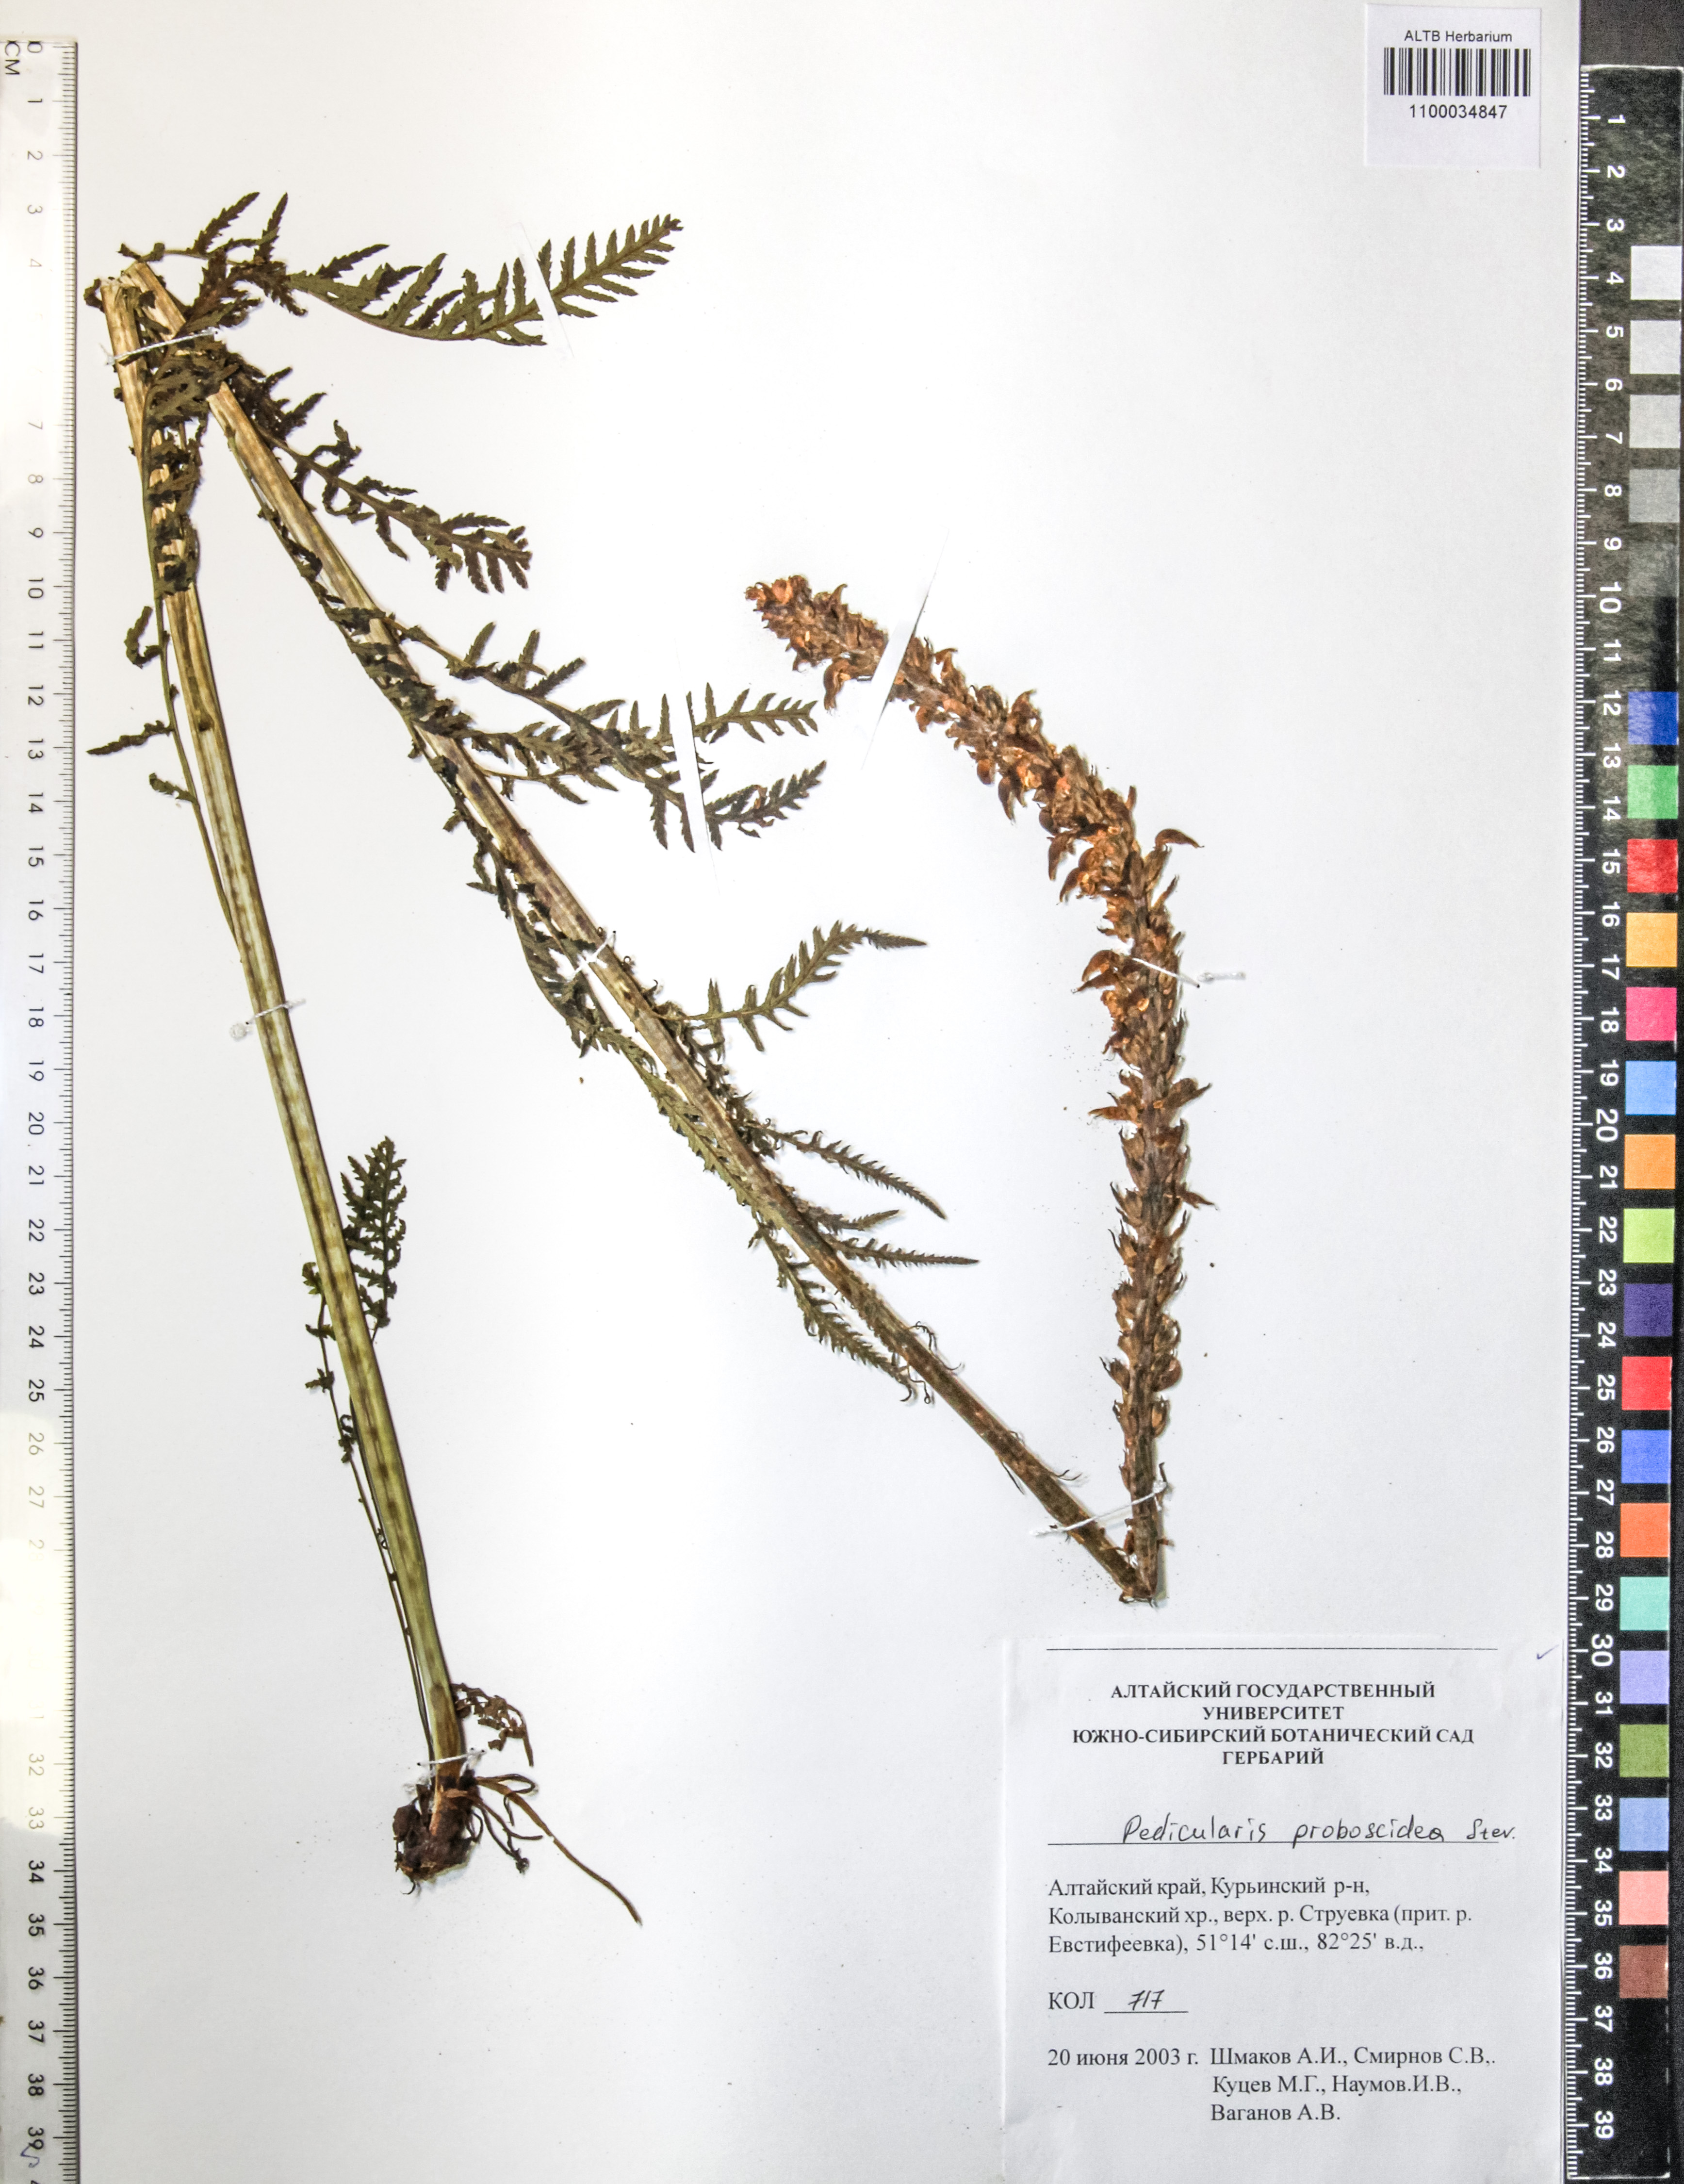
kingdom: Plantae
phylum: Tracheophyta
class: Magnoliopsida
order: Lamiales
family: Orobanchaceae
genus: Pedicularis
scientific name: Pedicularis proboscidea
